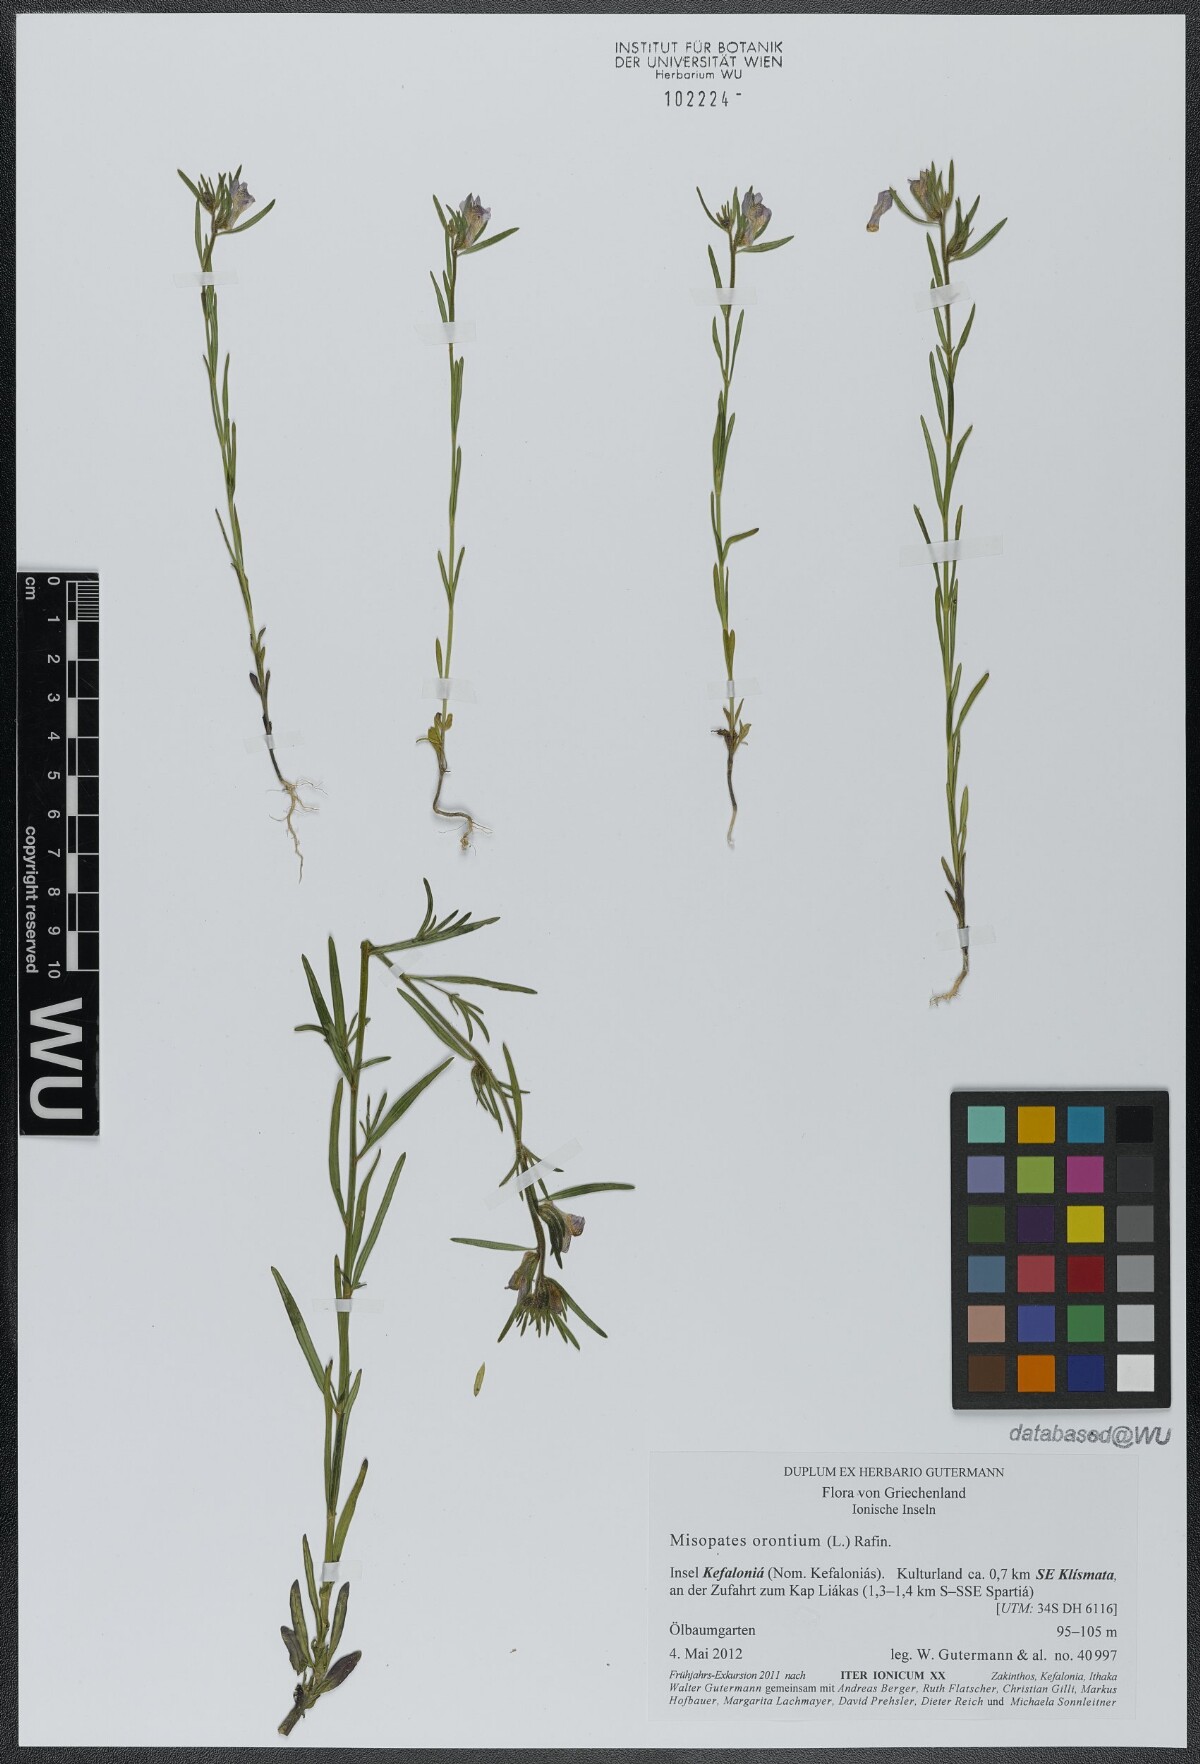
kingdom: Plantae
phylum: Tracheophyta
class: Magnoliopsida
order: Lamiales
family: Plantaginaceae
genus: Misopates
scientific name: Misopates orontium
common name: Weasel's-snout
